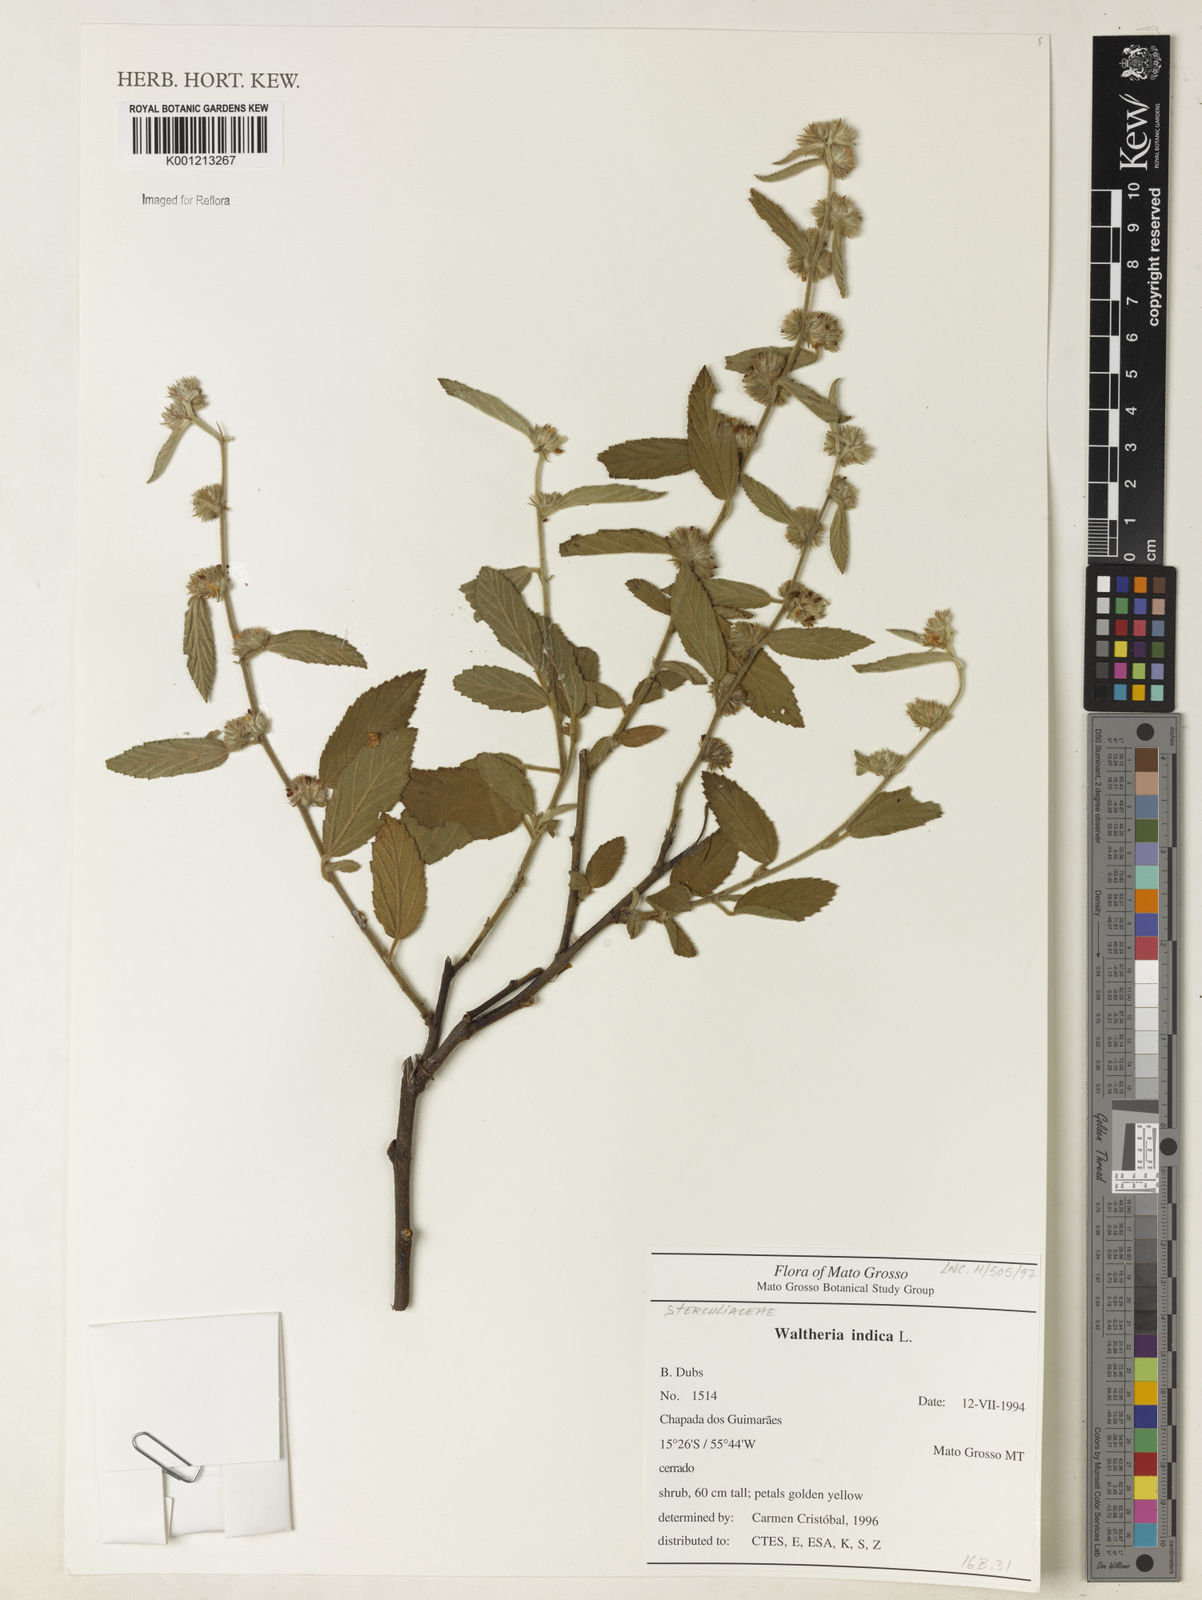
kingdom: Plantae
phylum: Tracheophyta
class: Magnoliopsida
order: Malvales
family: Malvaceae
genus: Waltheria
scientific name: Waltheria indica
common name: Leather-coat
